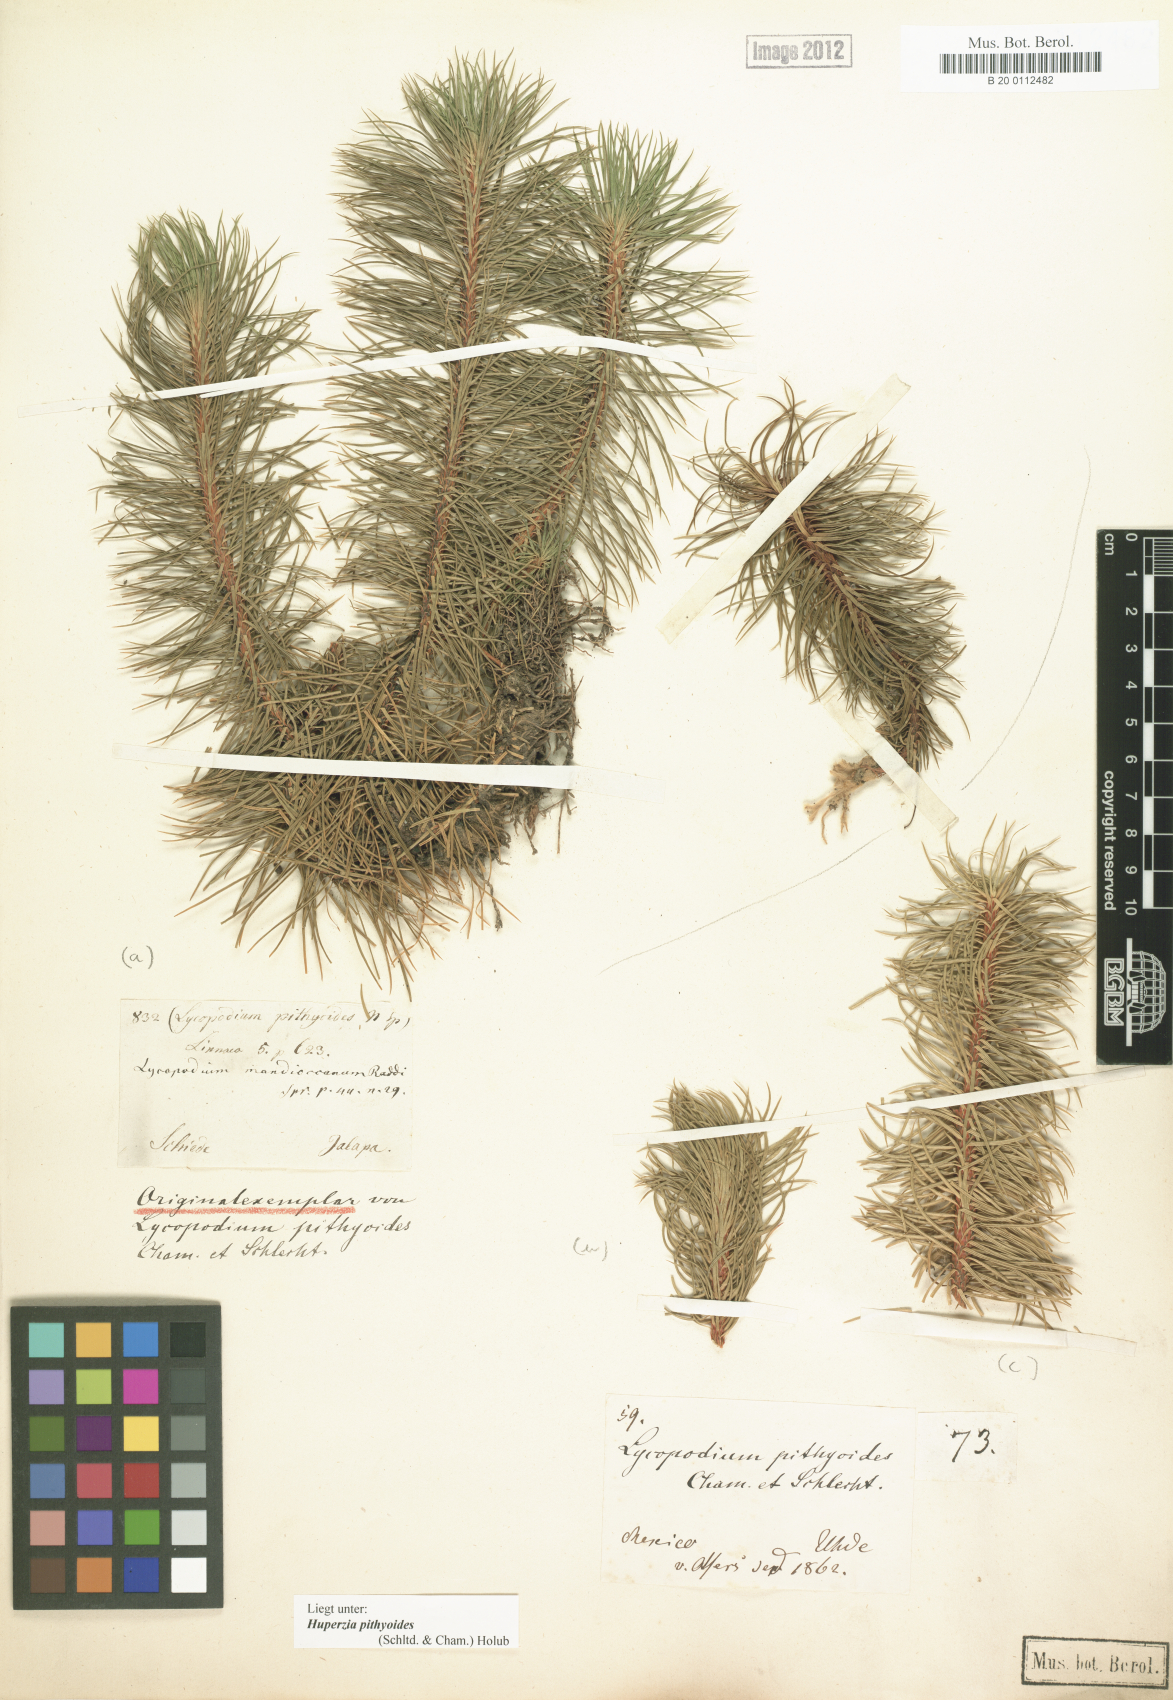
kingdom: Plantae
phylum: Tracheophyta
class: Lycopodiopsida
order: Lycopodiales
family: Lycopodiaceae
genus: Phlegmariurus
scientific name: Phlegmariurus pithyoides
